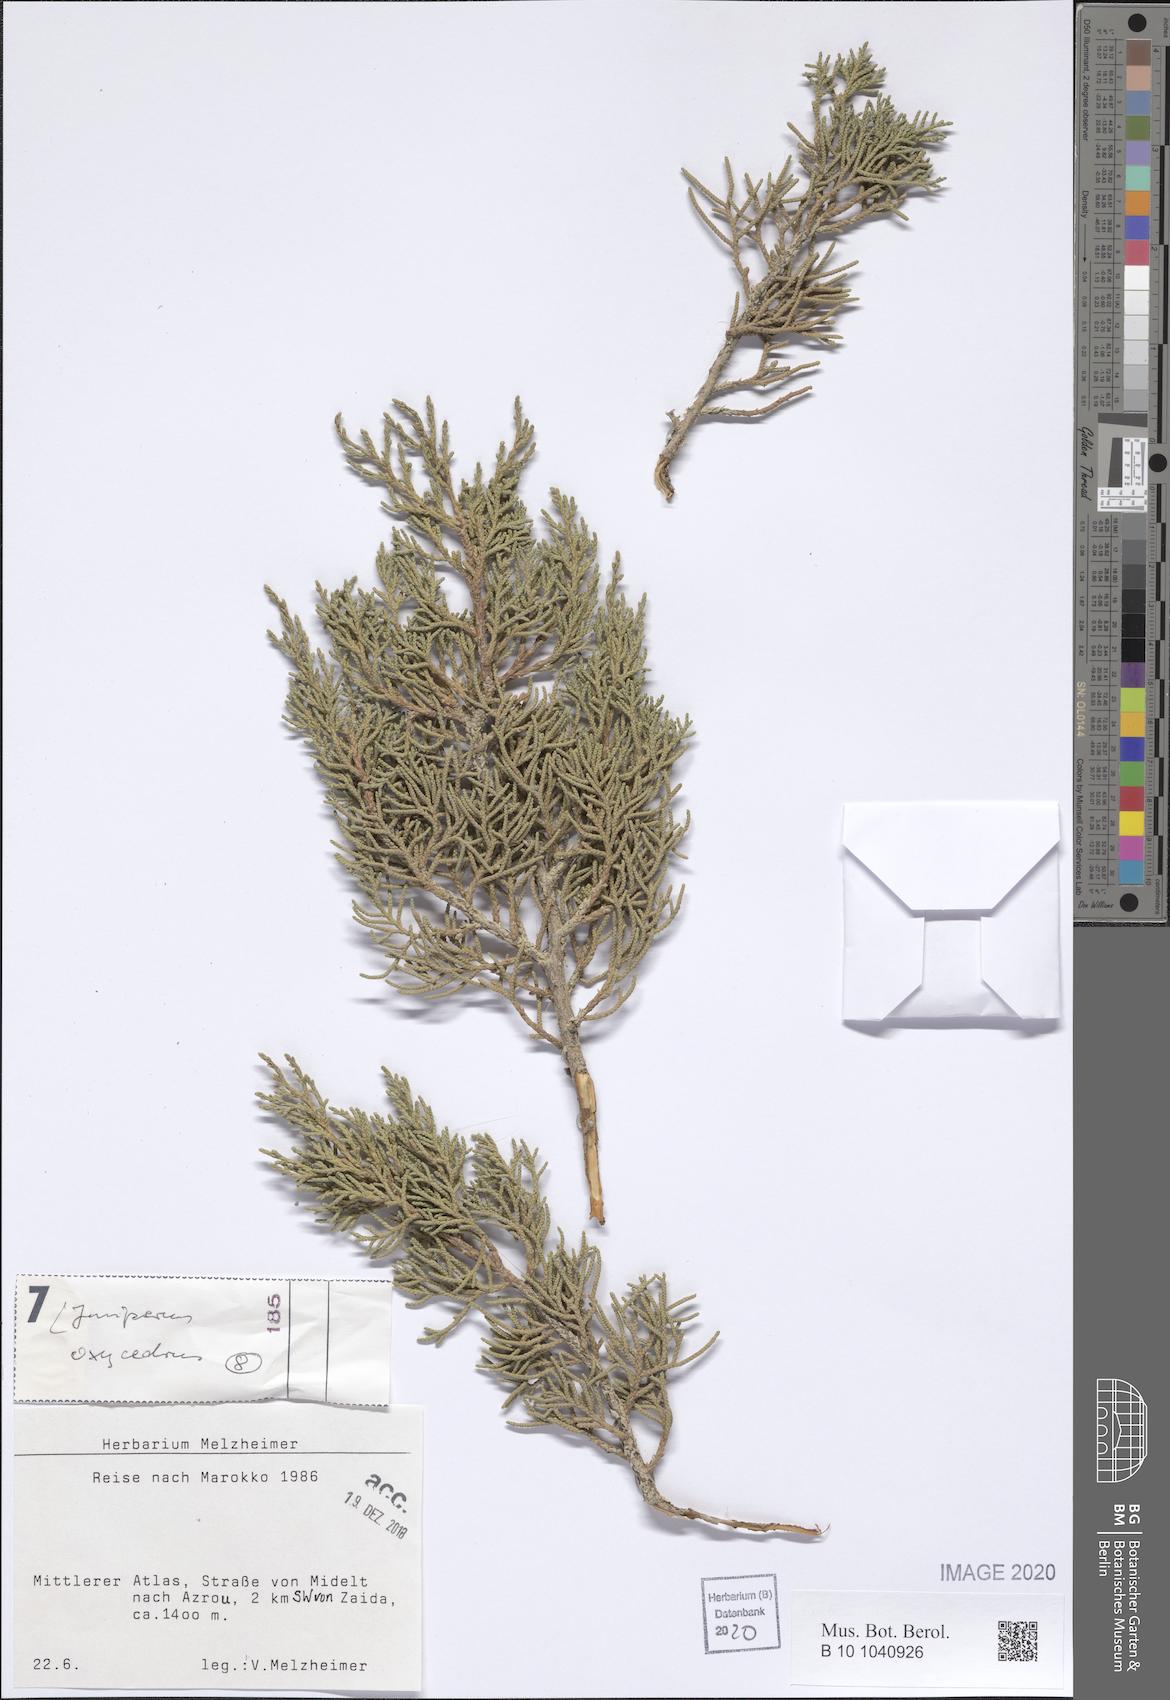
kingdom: Plantae
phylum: Tracheophyta
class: Pinopsida
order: Pinales
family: Cupressaceae
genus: Juniperus
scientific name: Juniperus oxycedrus
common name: Prickly juniper
